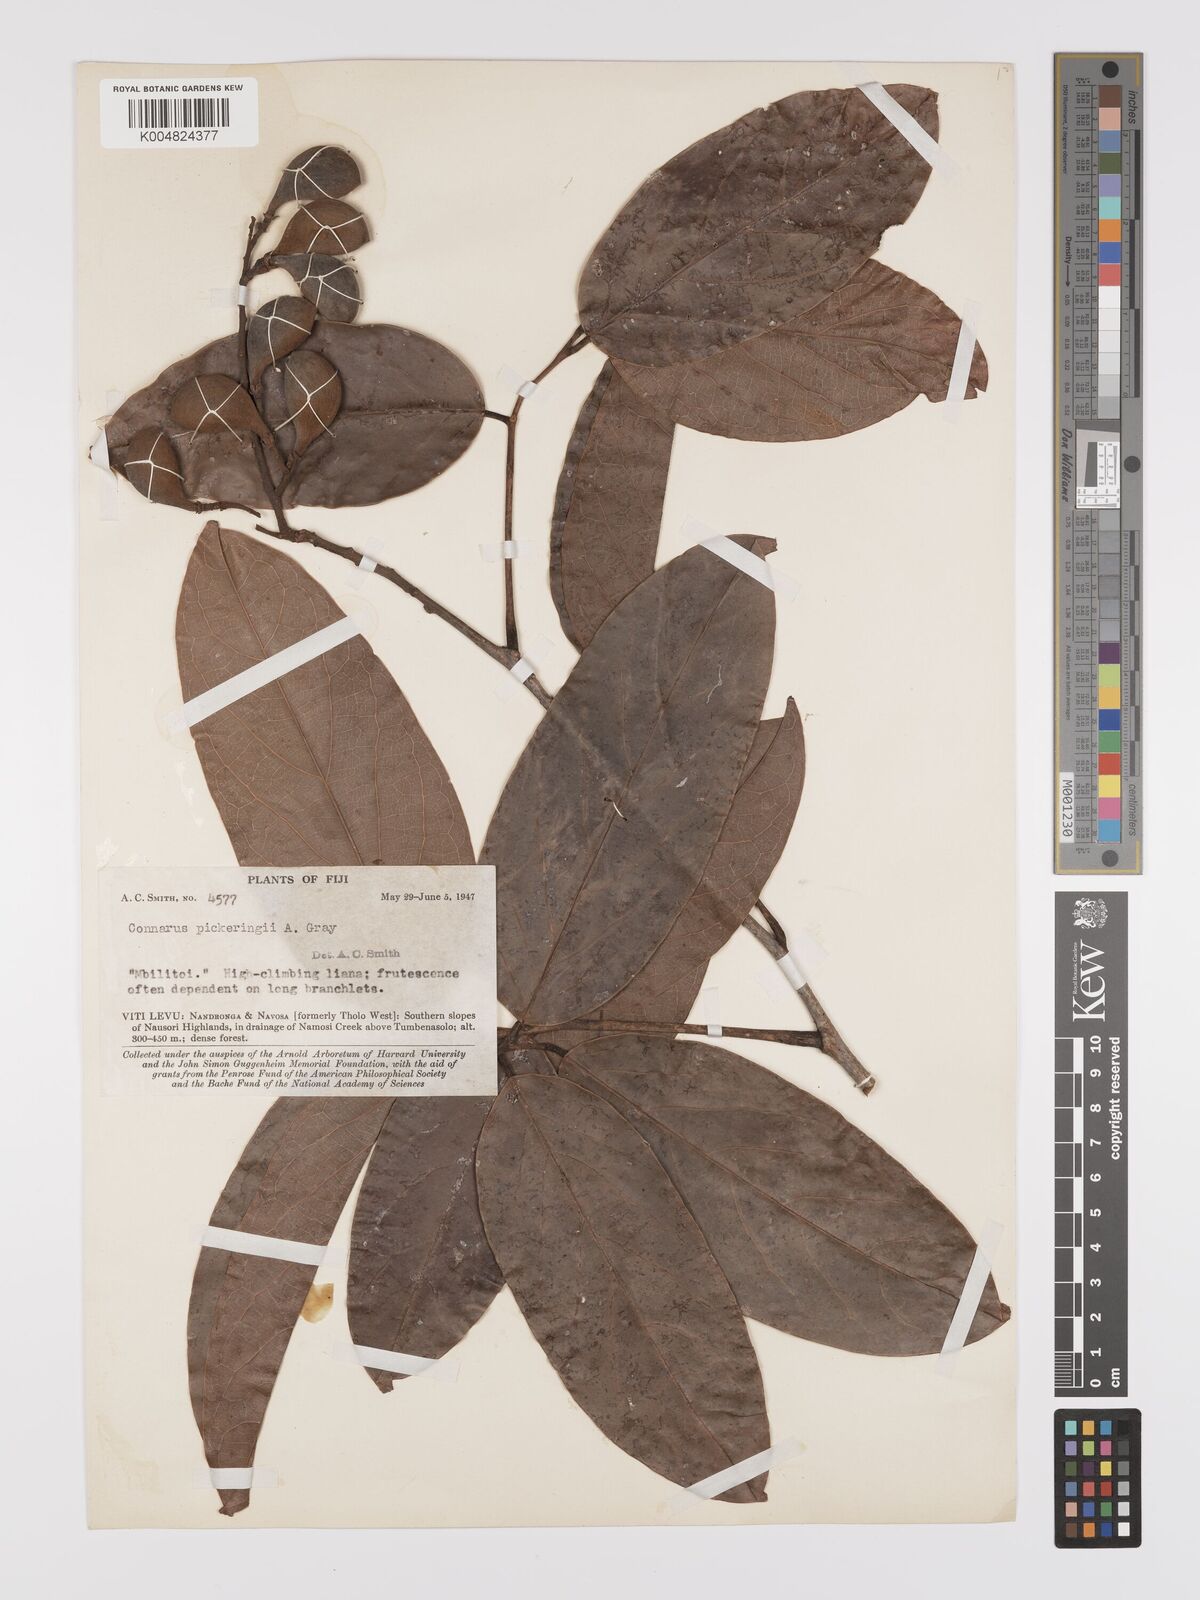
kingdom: Plantae
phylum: Tracheophyta
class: Magnoliopsida
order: Oxalidales
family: Connaraceae
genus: Connarus
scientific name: Connarus pickeringii
